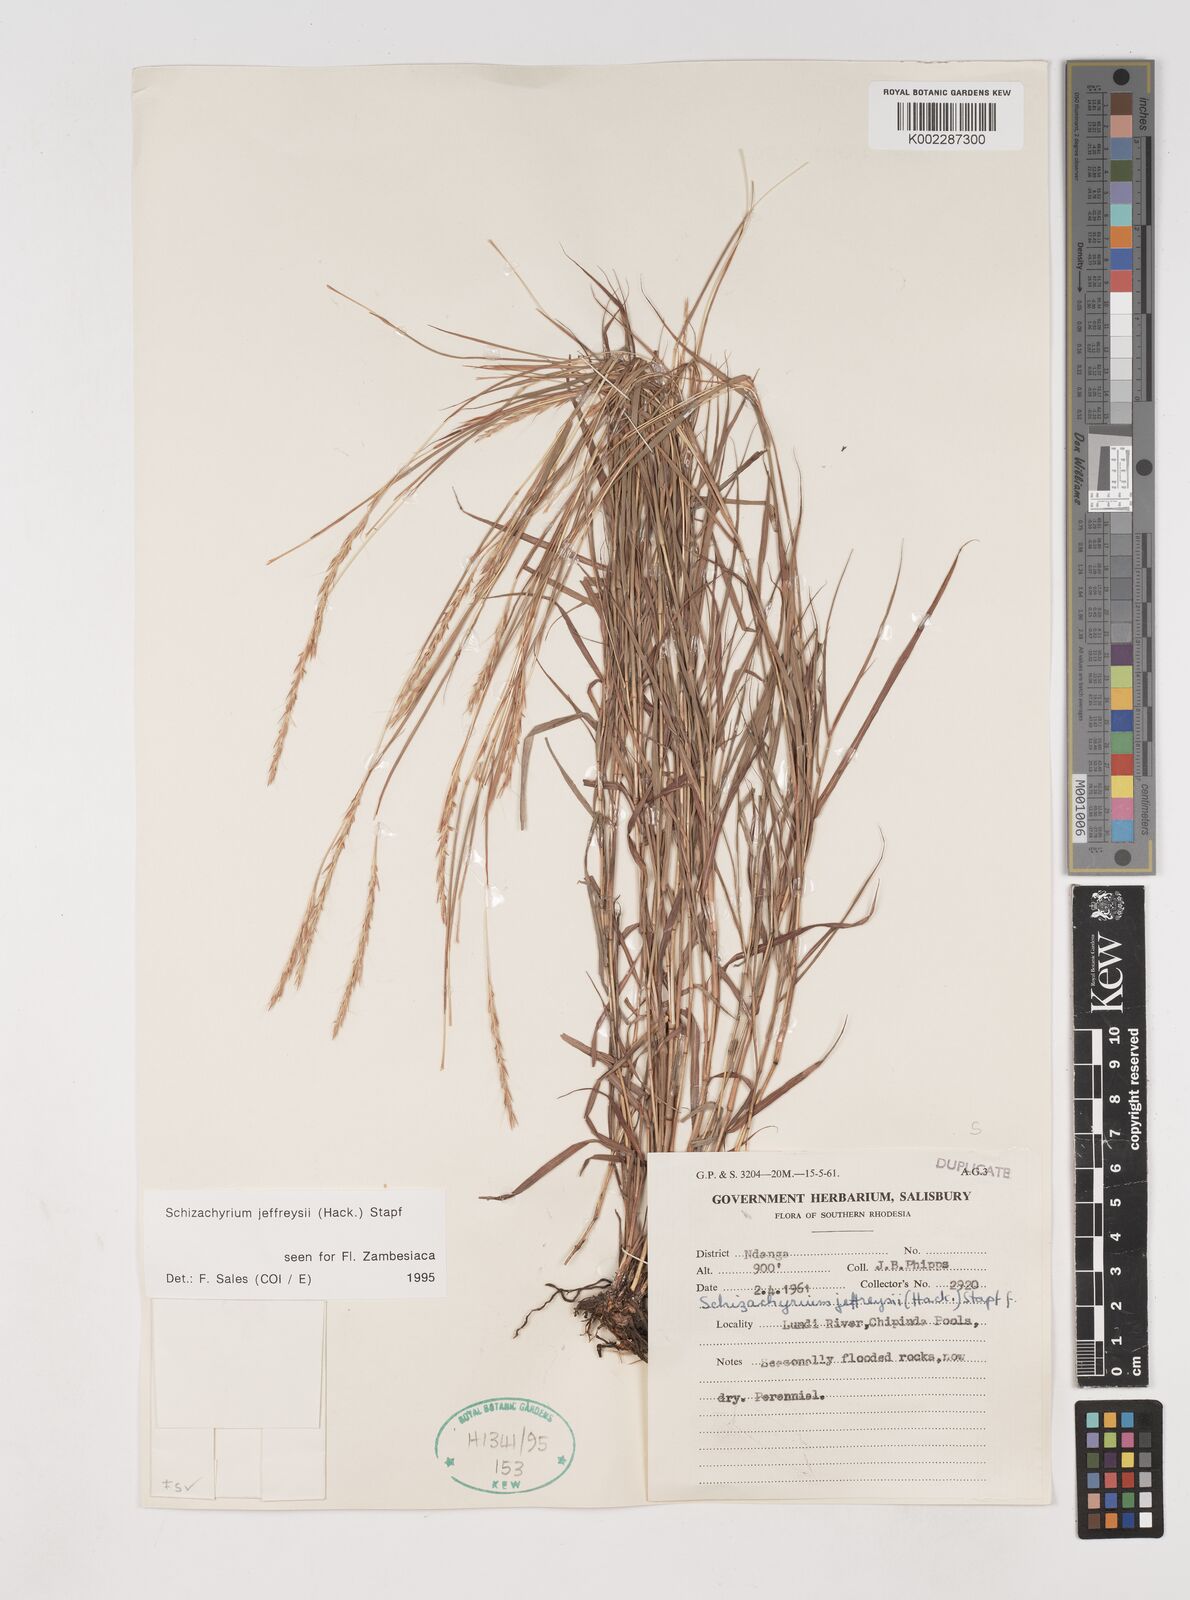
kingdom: Plantae
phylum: Tracheophyta
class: Liliopsida
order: Poales
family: Poaceae
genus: Schizachyrium
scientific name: Schizachyrium jeffreysii
